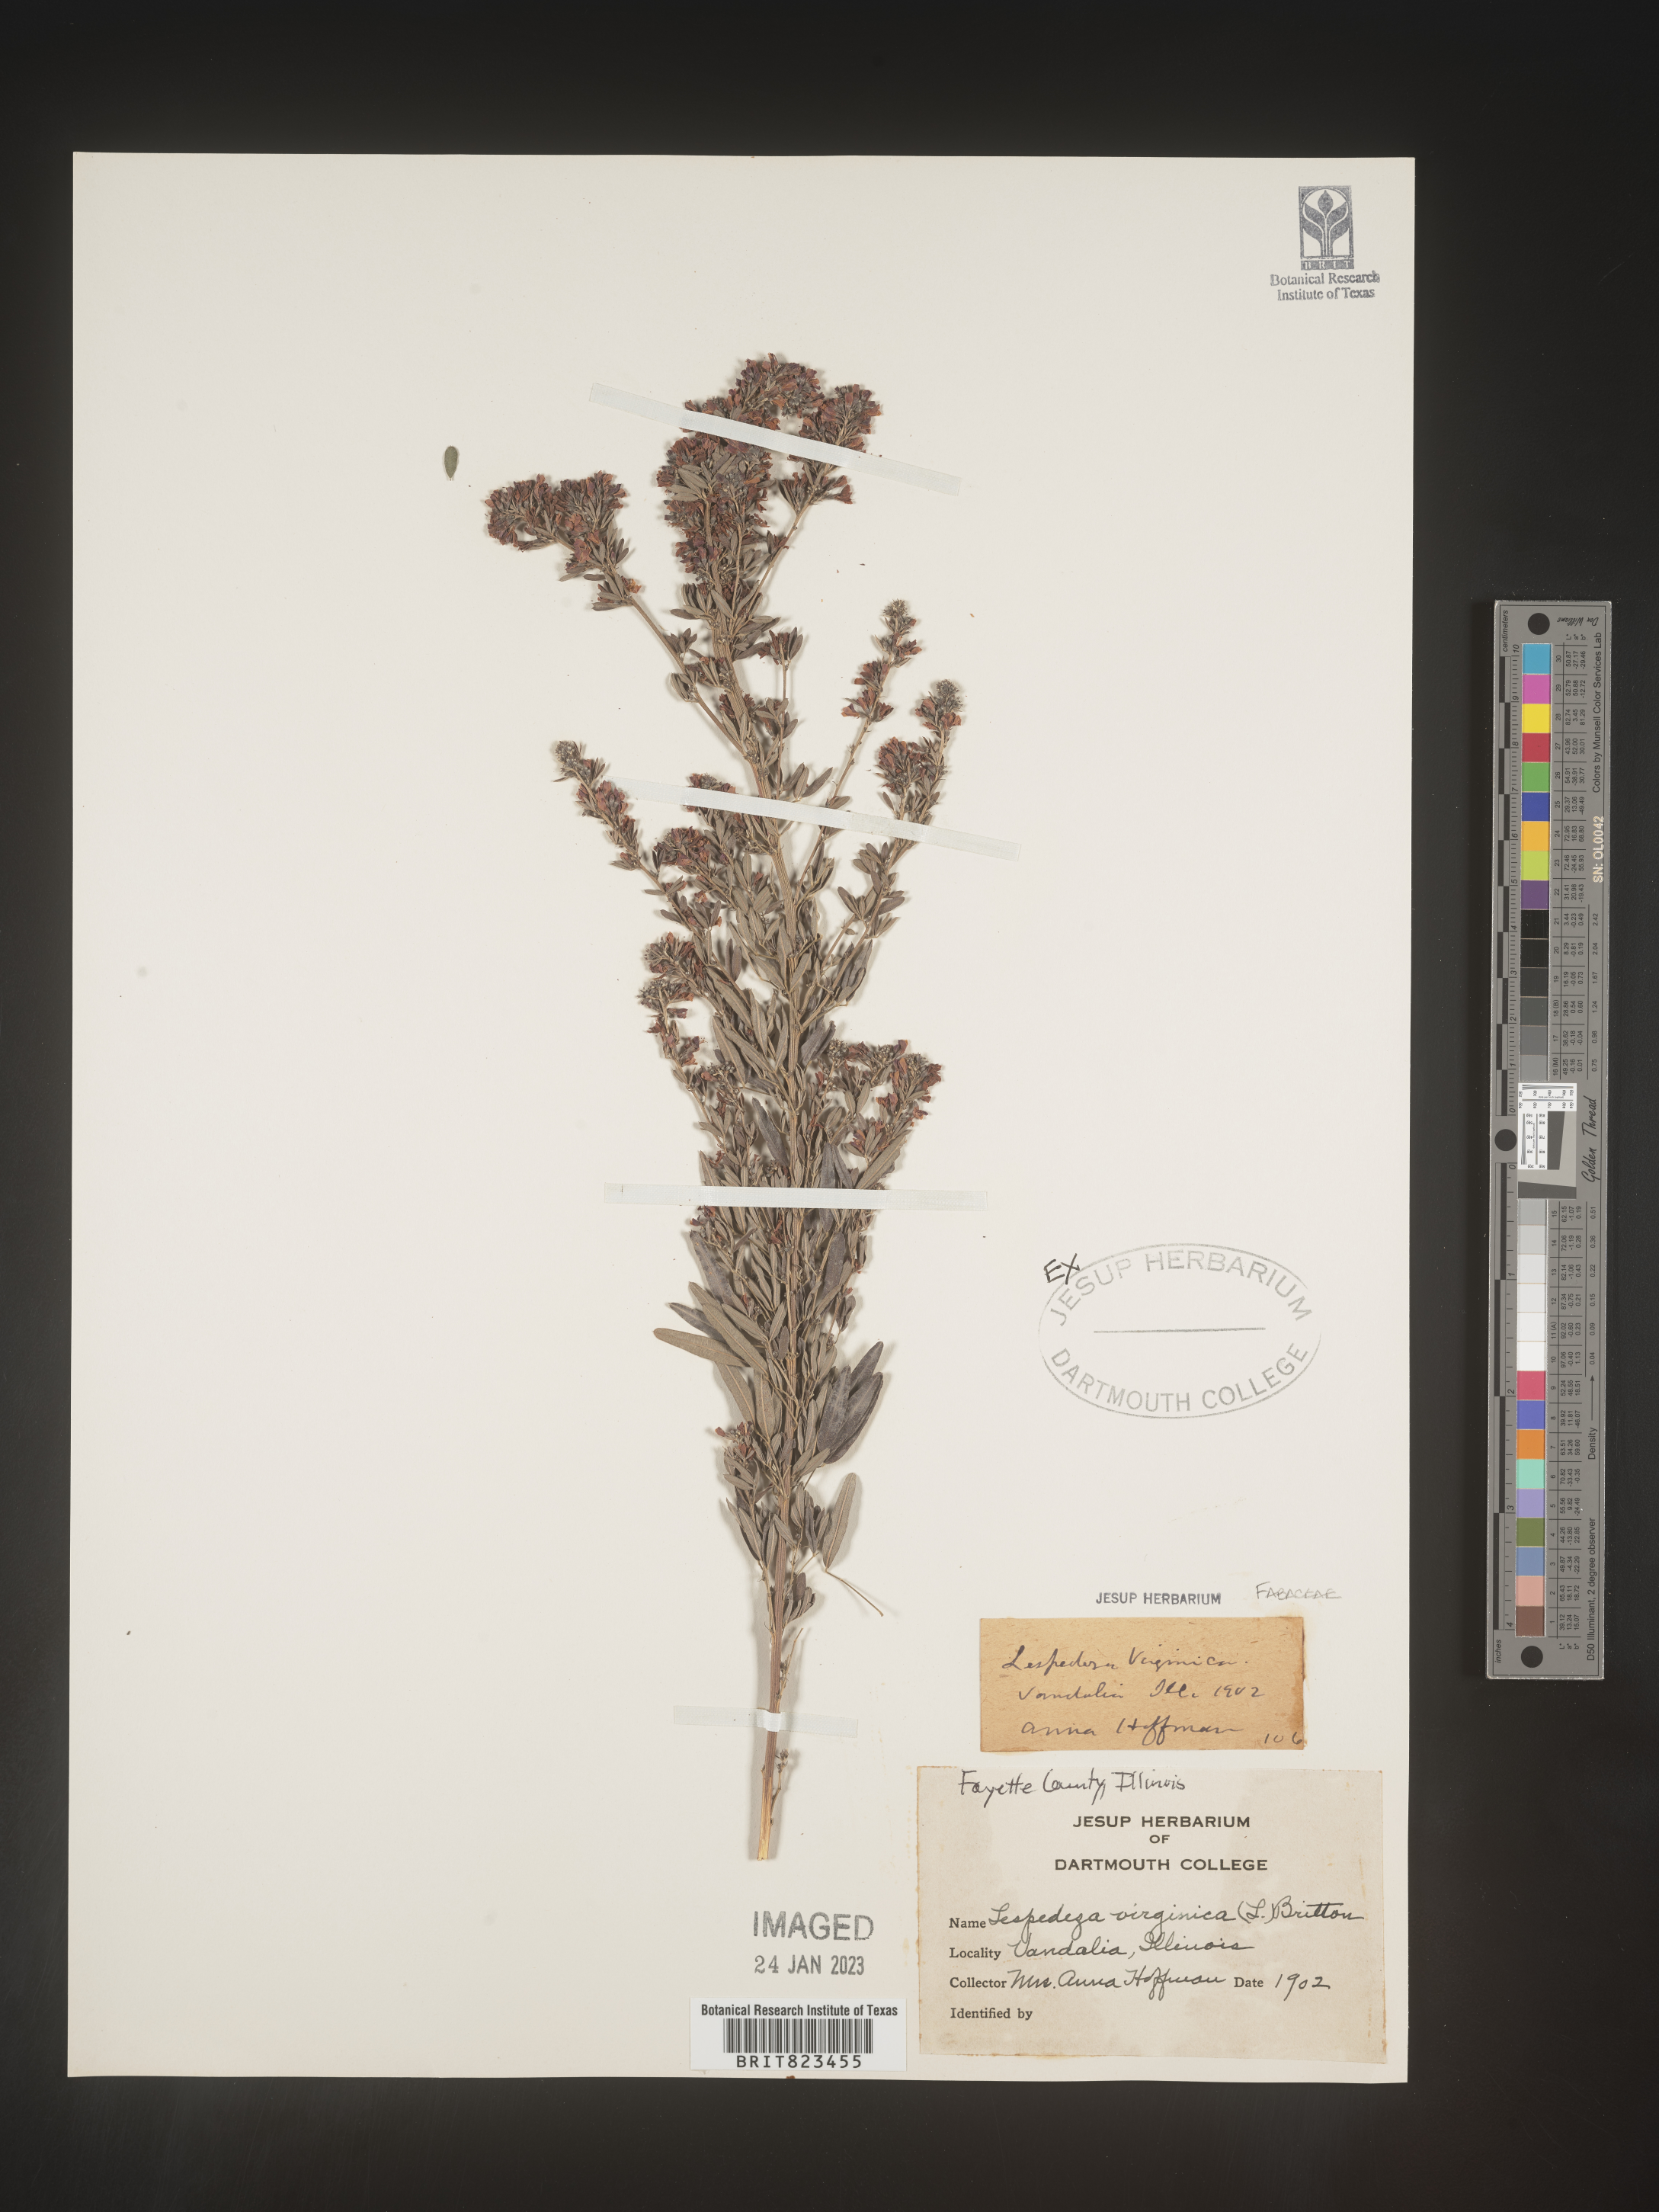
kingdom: Plantae
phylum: Tracheophyta
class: Magnoliopsida
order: Fabales
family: Fabaceae
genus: Lespedeza
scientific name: Lespedeza virginica
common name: Slender bush-clover
